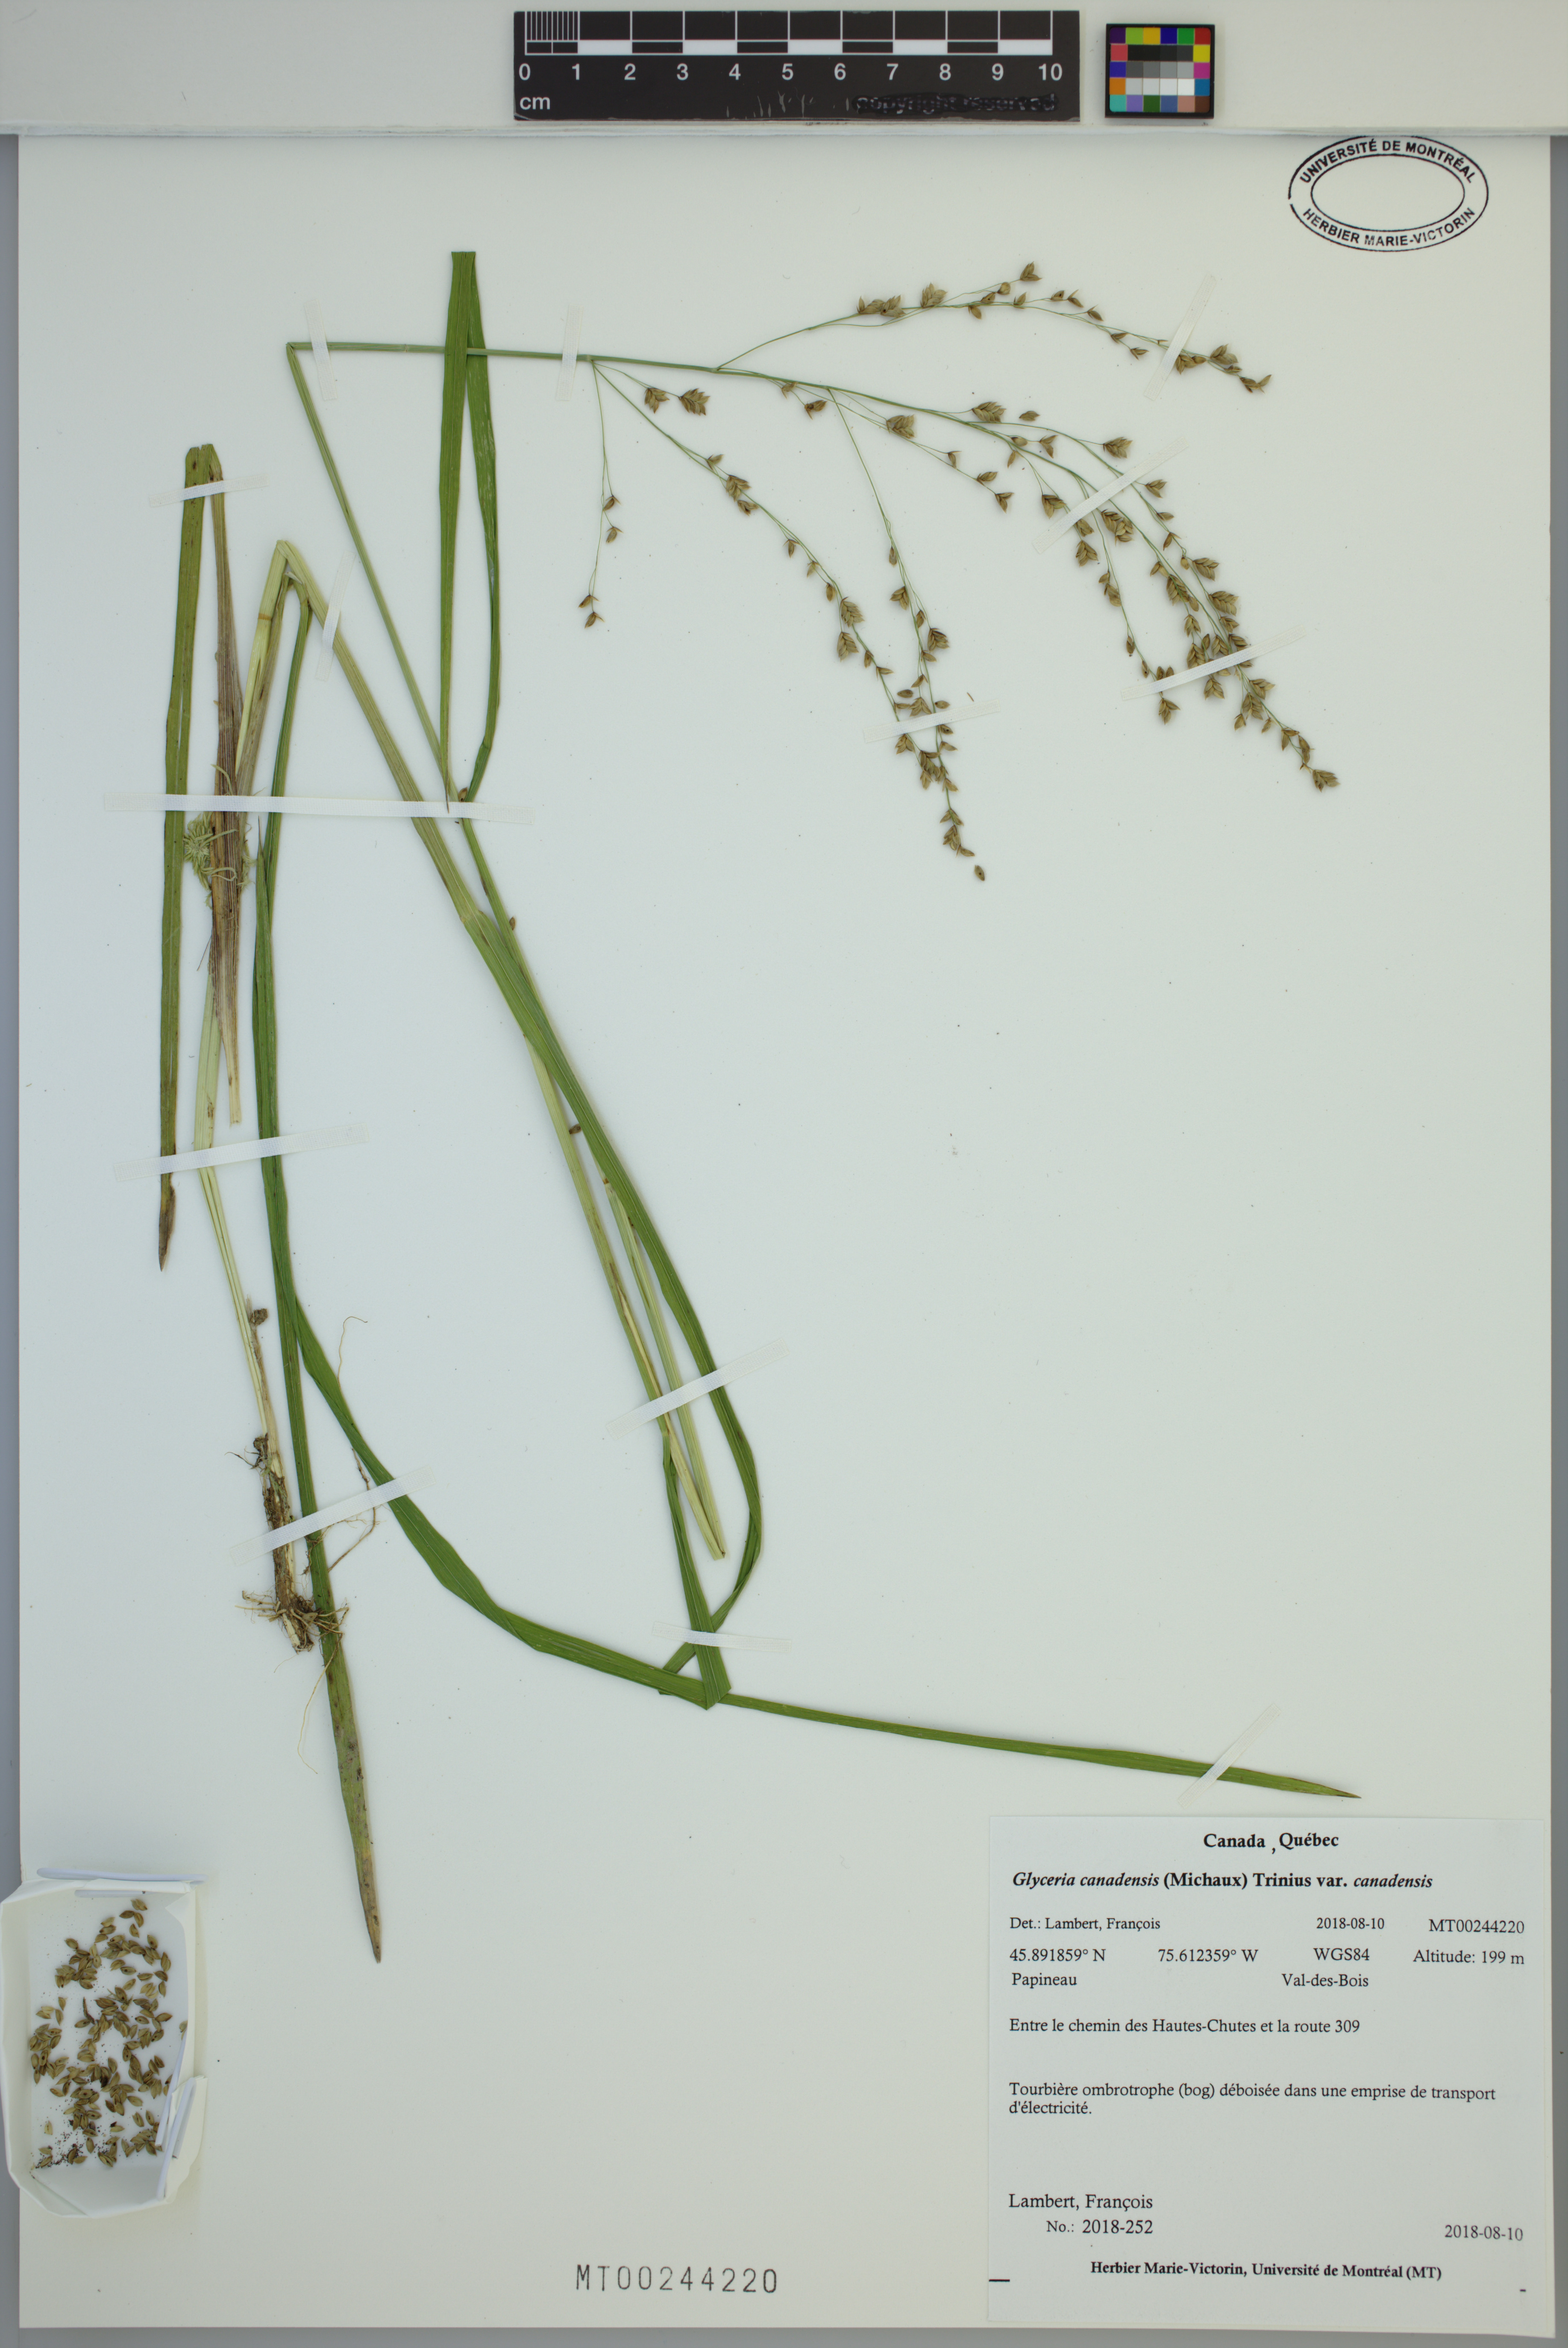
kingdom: Plantae
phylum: Tracheophyta
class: Liliopsida
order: Poales
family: Poaceae
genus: Glyceria
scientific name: Glyceria canadensis
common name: Canada mannagrass
